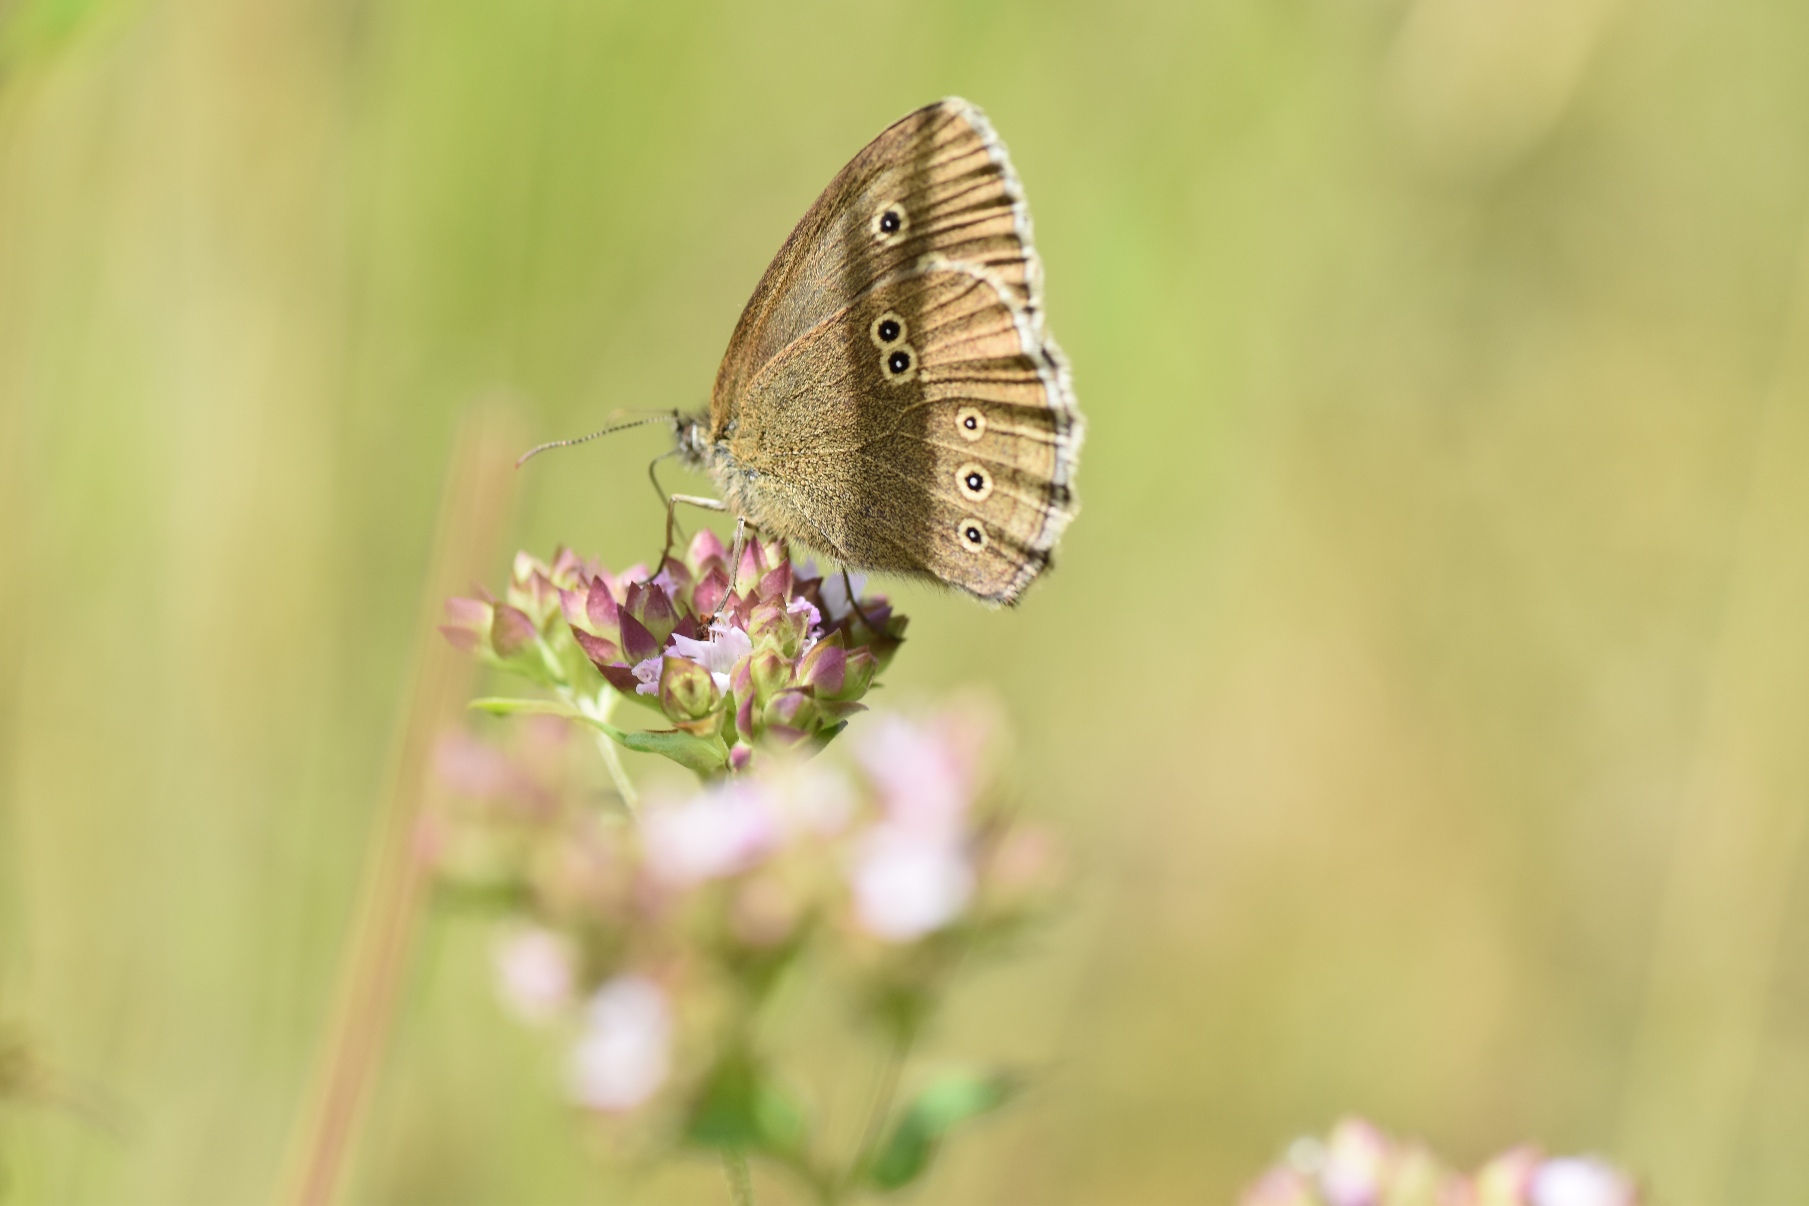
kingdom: Animalia
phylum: Arthropoda
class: Insecta
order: Lepidoptera
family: Nymphalidae
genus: Aphantopus
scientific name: Aphantopus hyperantus
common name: Engrandøje
